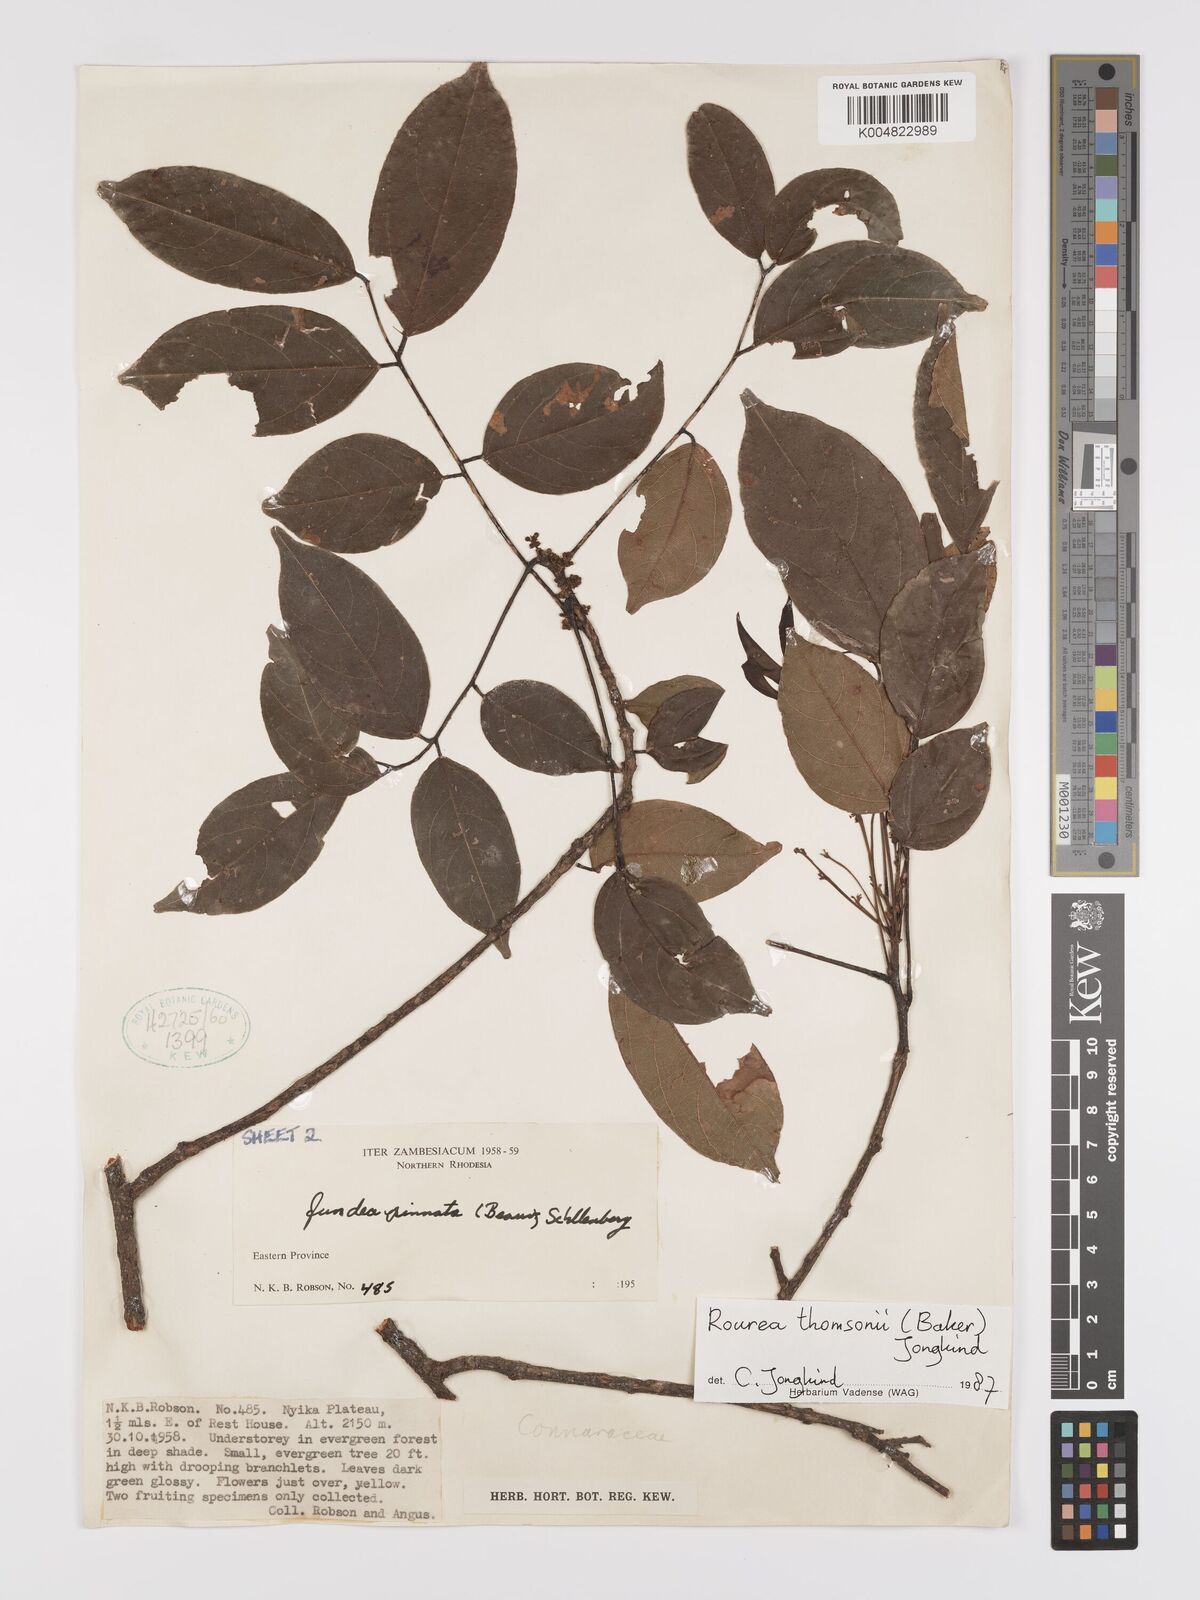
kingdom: Plantae
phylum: Tracheophyta
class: Magnoliopsida
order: Oxalidales
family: Connaraceae
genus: Rourea
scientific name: Rourea pinnata
